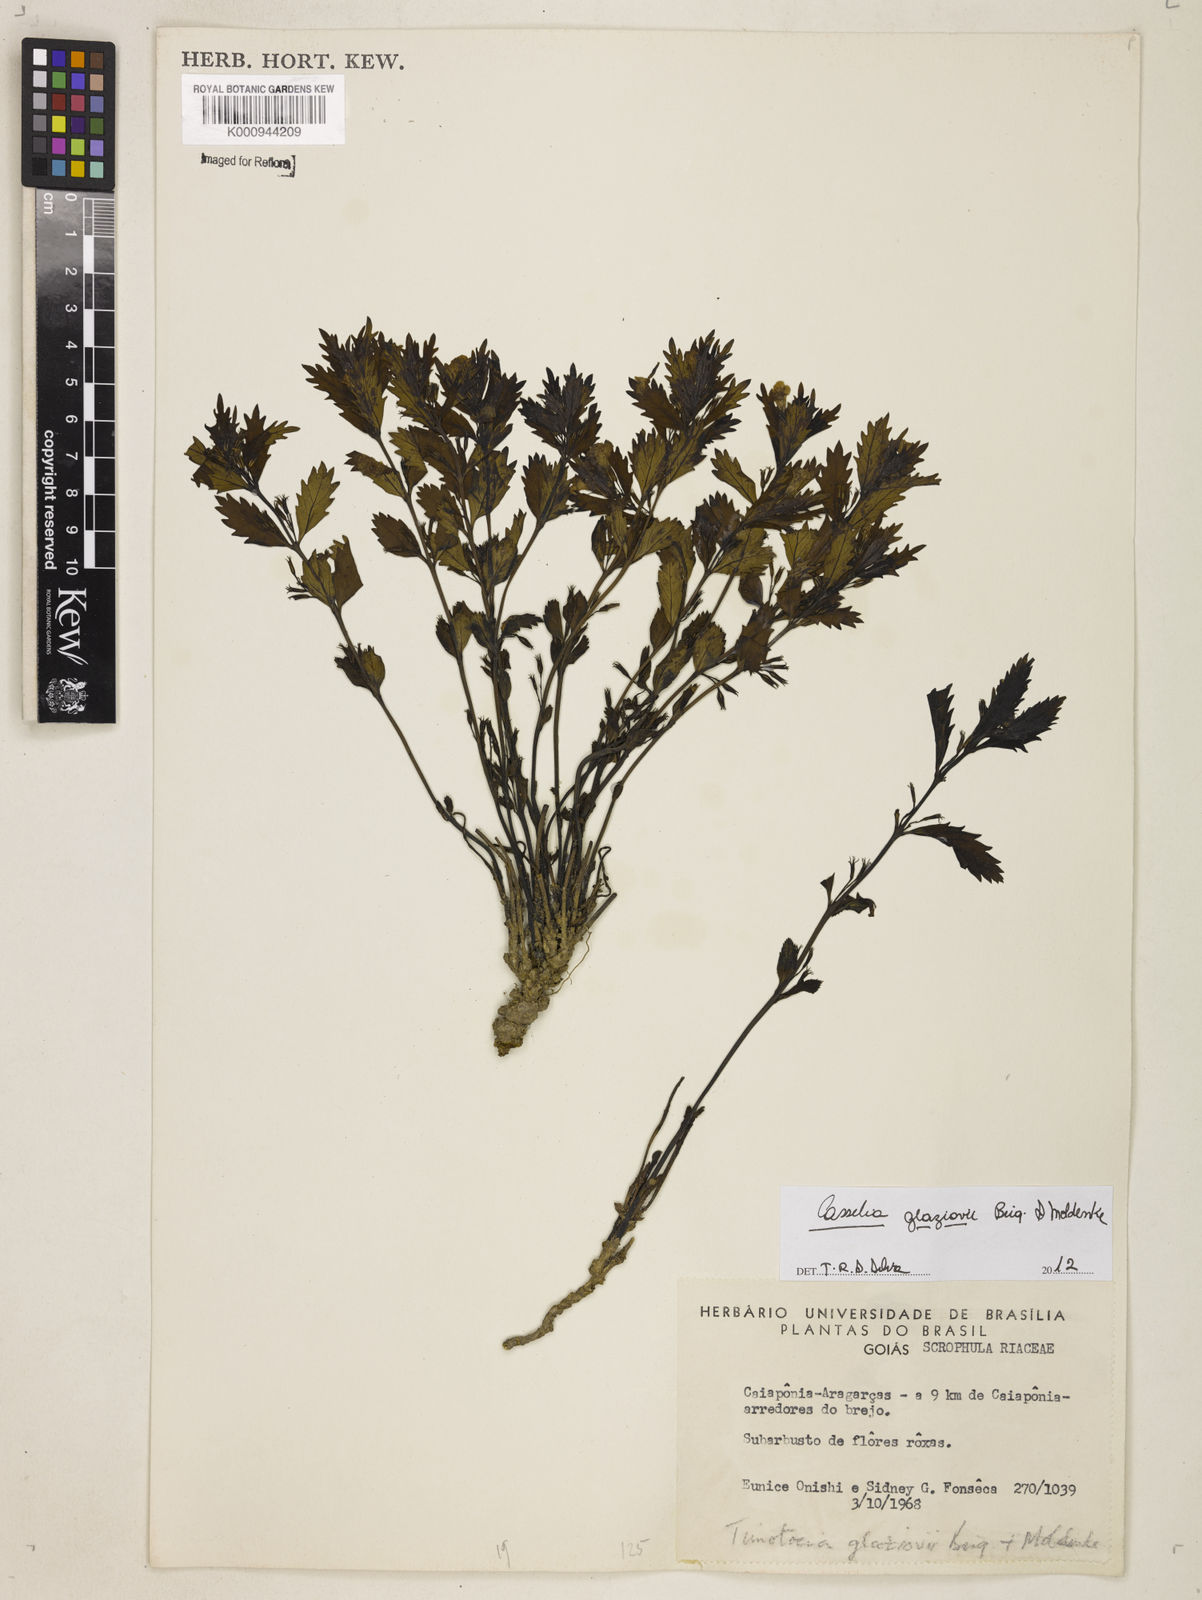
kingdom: Plantae
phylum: Tracheophyta
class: Magnoliopsida
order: Lamiales
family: Verbenaceae
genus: Casselia
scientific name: Casselia glaziovii
